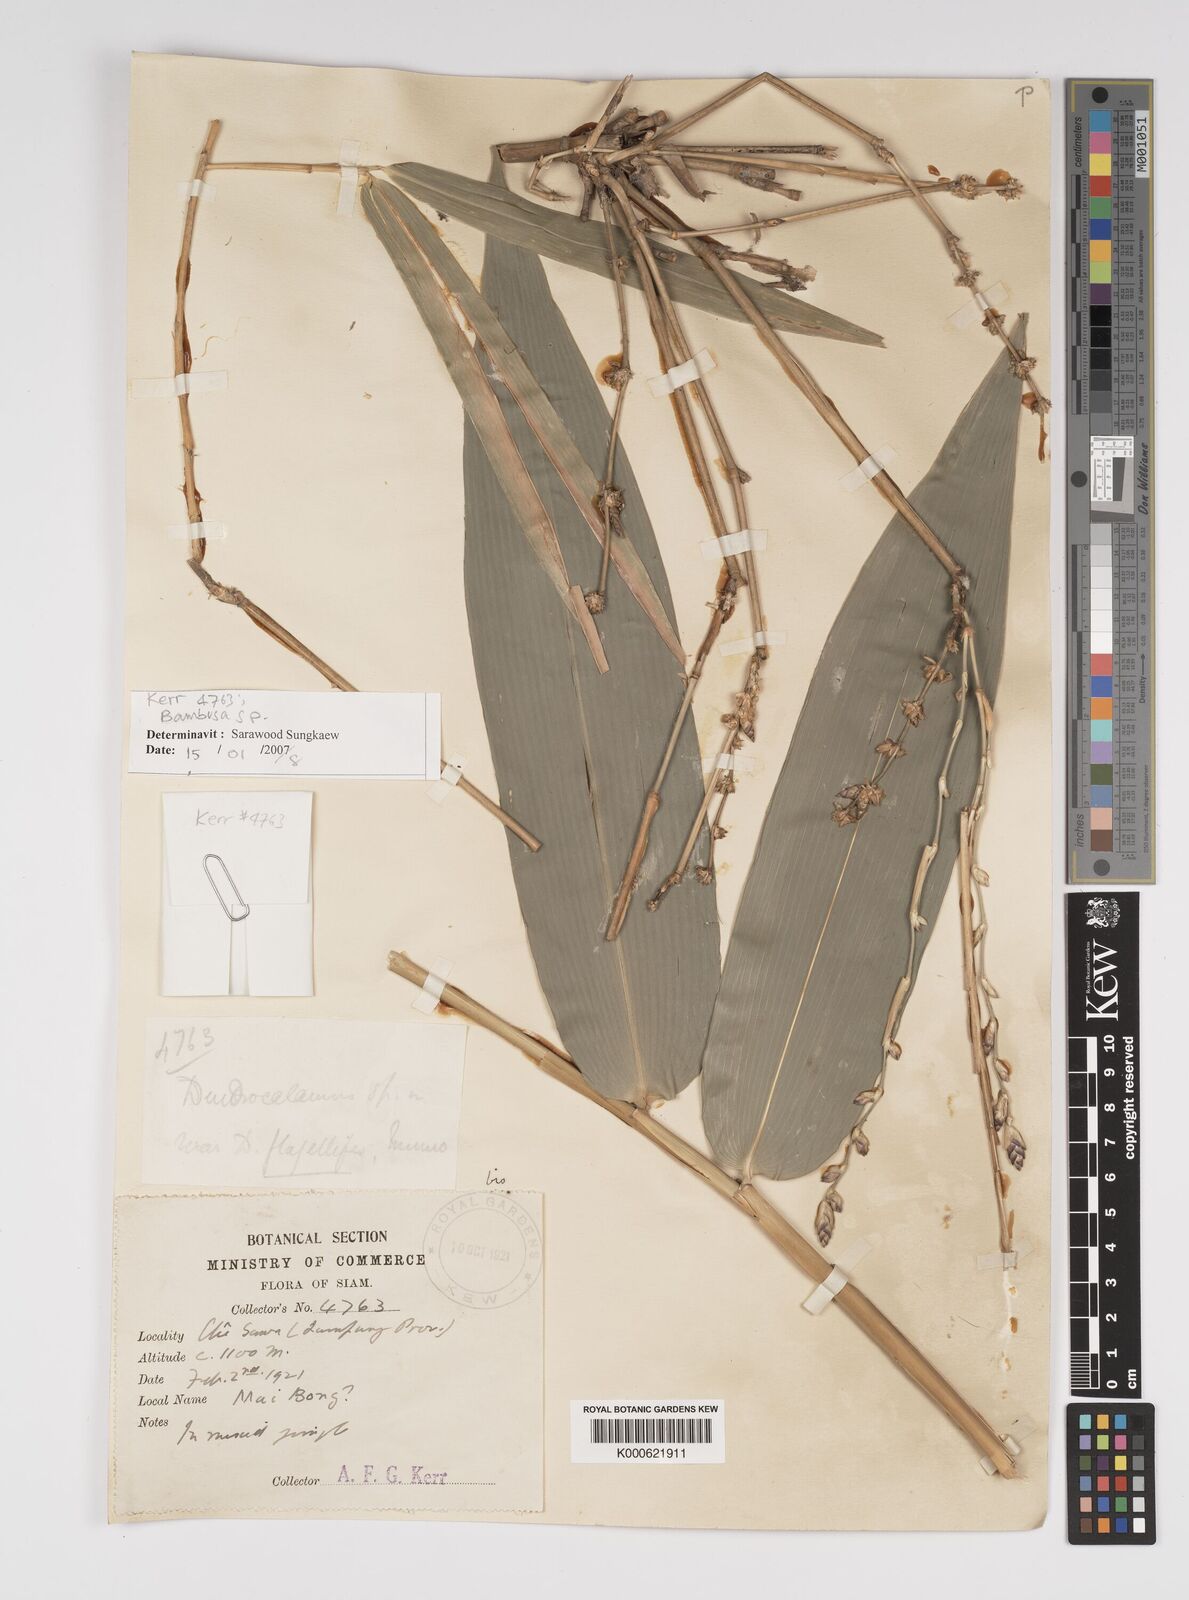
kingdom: Plantae
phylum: Tracheophyta
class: Liliopsida
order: Poales
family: Poaceae
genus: Bambusa
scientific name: Bambusa
